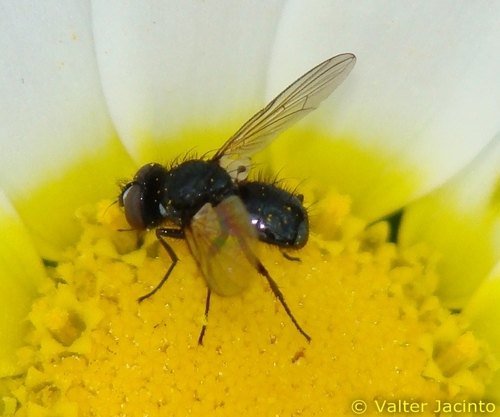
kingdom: Animalia
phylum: Arthropoda
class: Insecta
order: Diptera
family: Tachinidae
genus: Phania
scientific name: Phania albisquama
